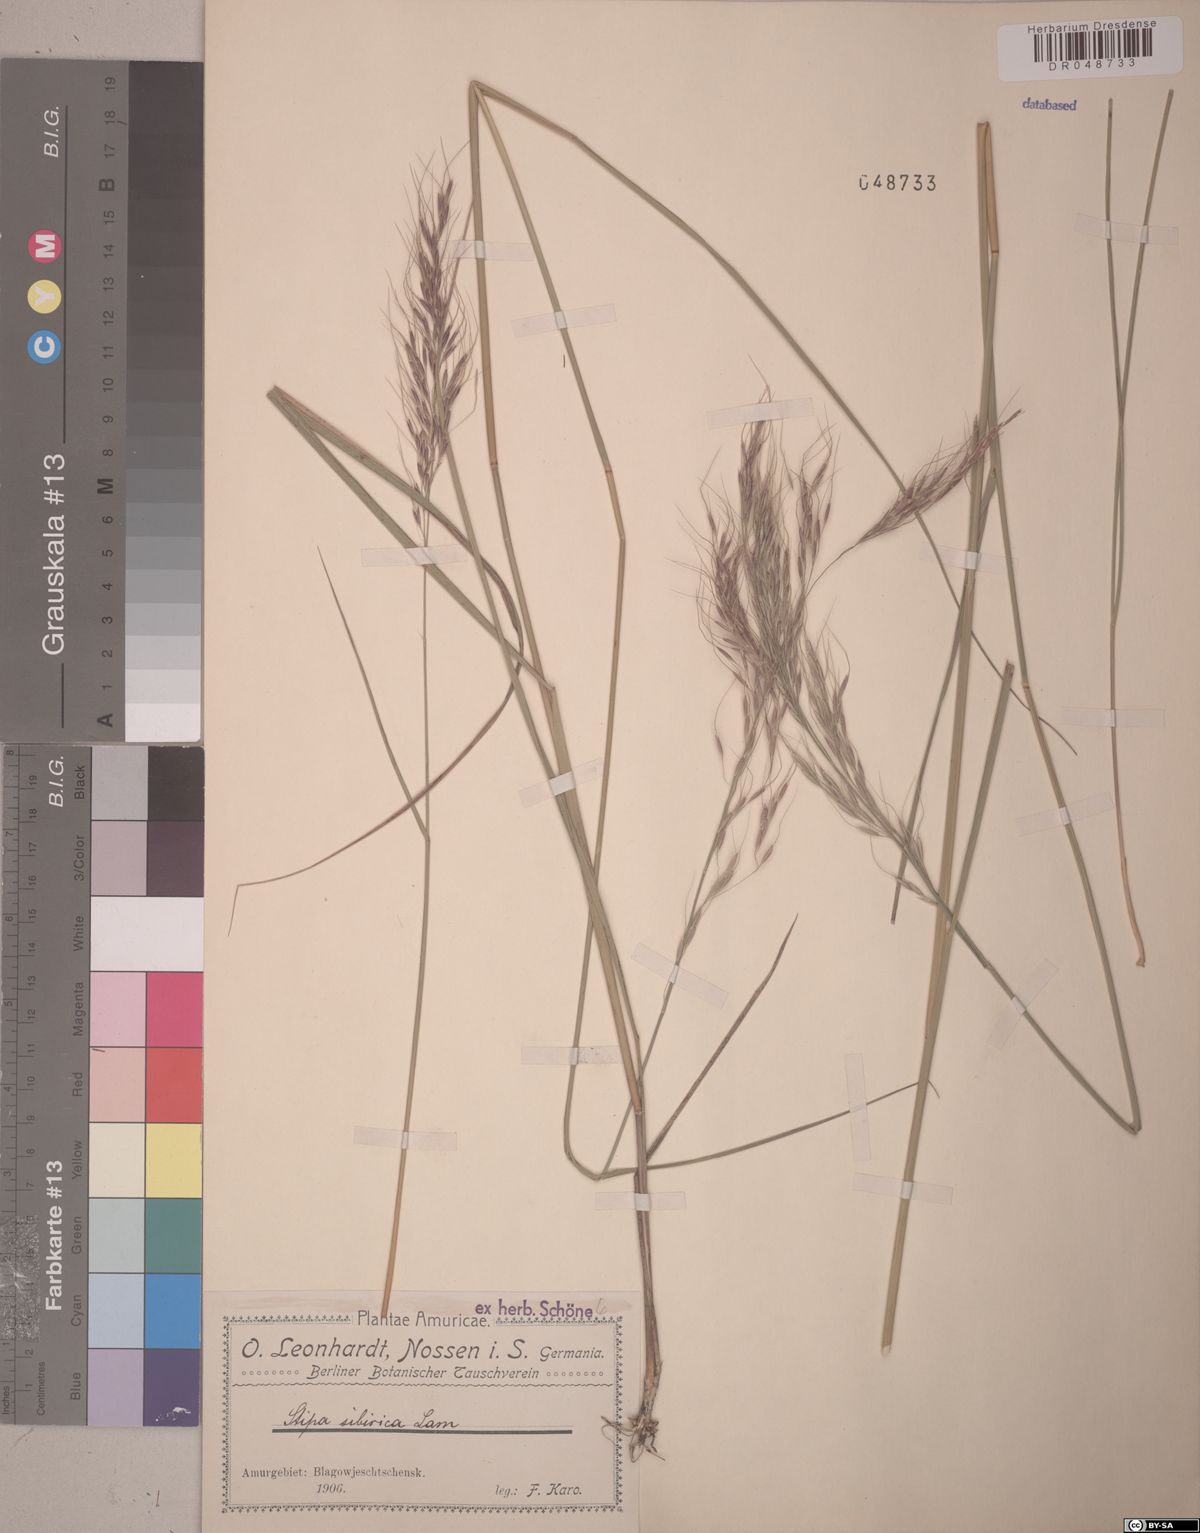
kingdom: Plantae
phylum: Tracheophyta
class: Liliopsida
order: Poales
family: Poaceae
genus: Achnatherum
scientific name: Achnatherum sibiricum
